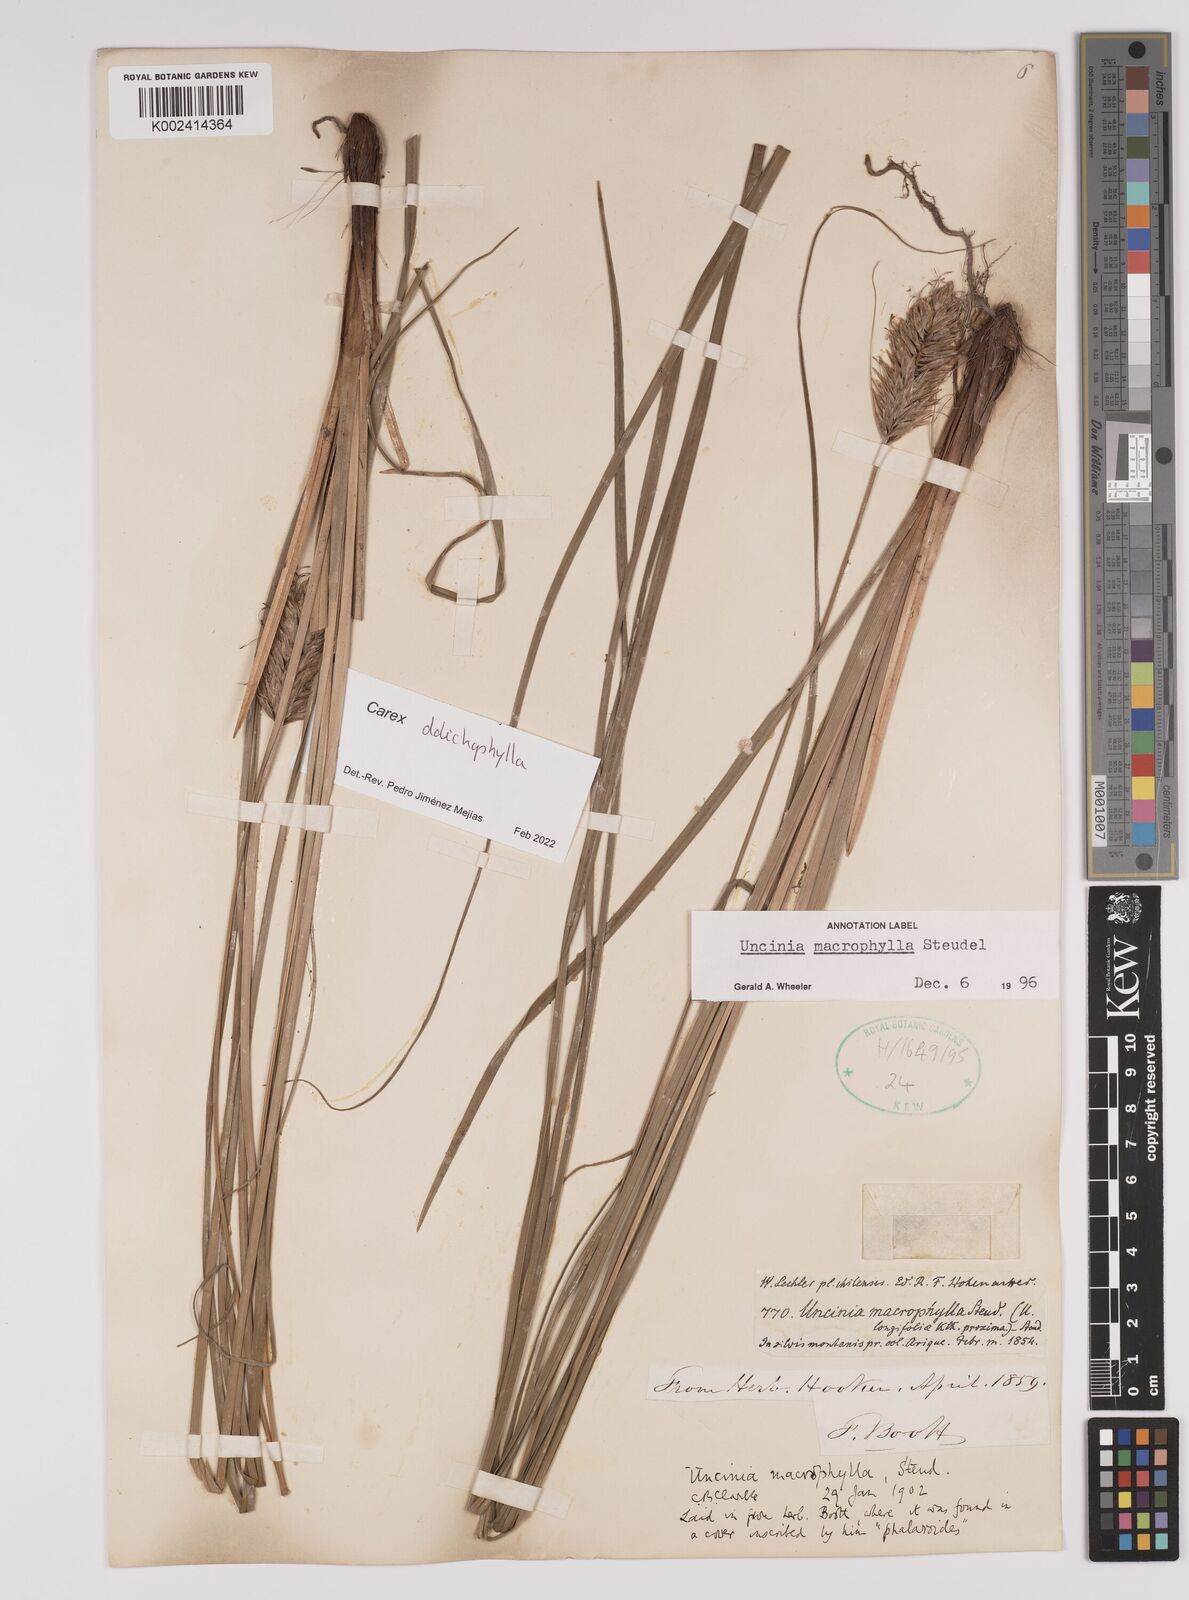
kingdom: Plantae
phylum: Tracheophyta
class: Liliopsida
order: Poales
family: Cyperaceae
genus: Carex
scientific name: Carex dolichophylla
